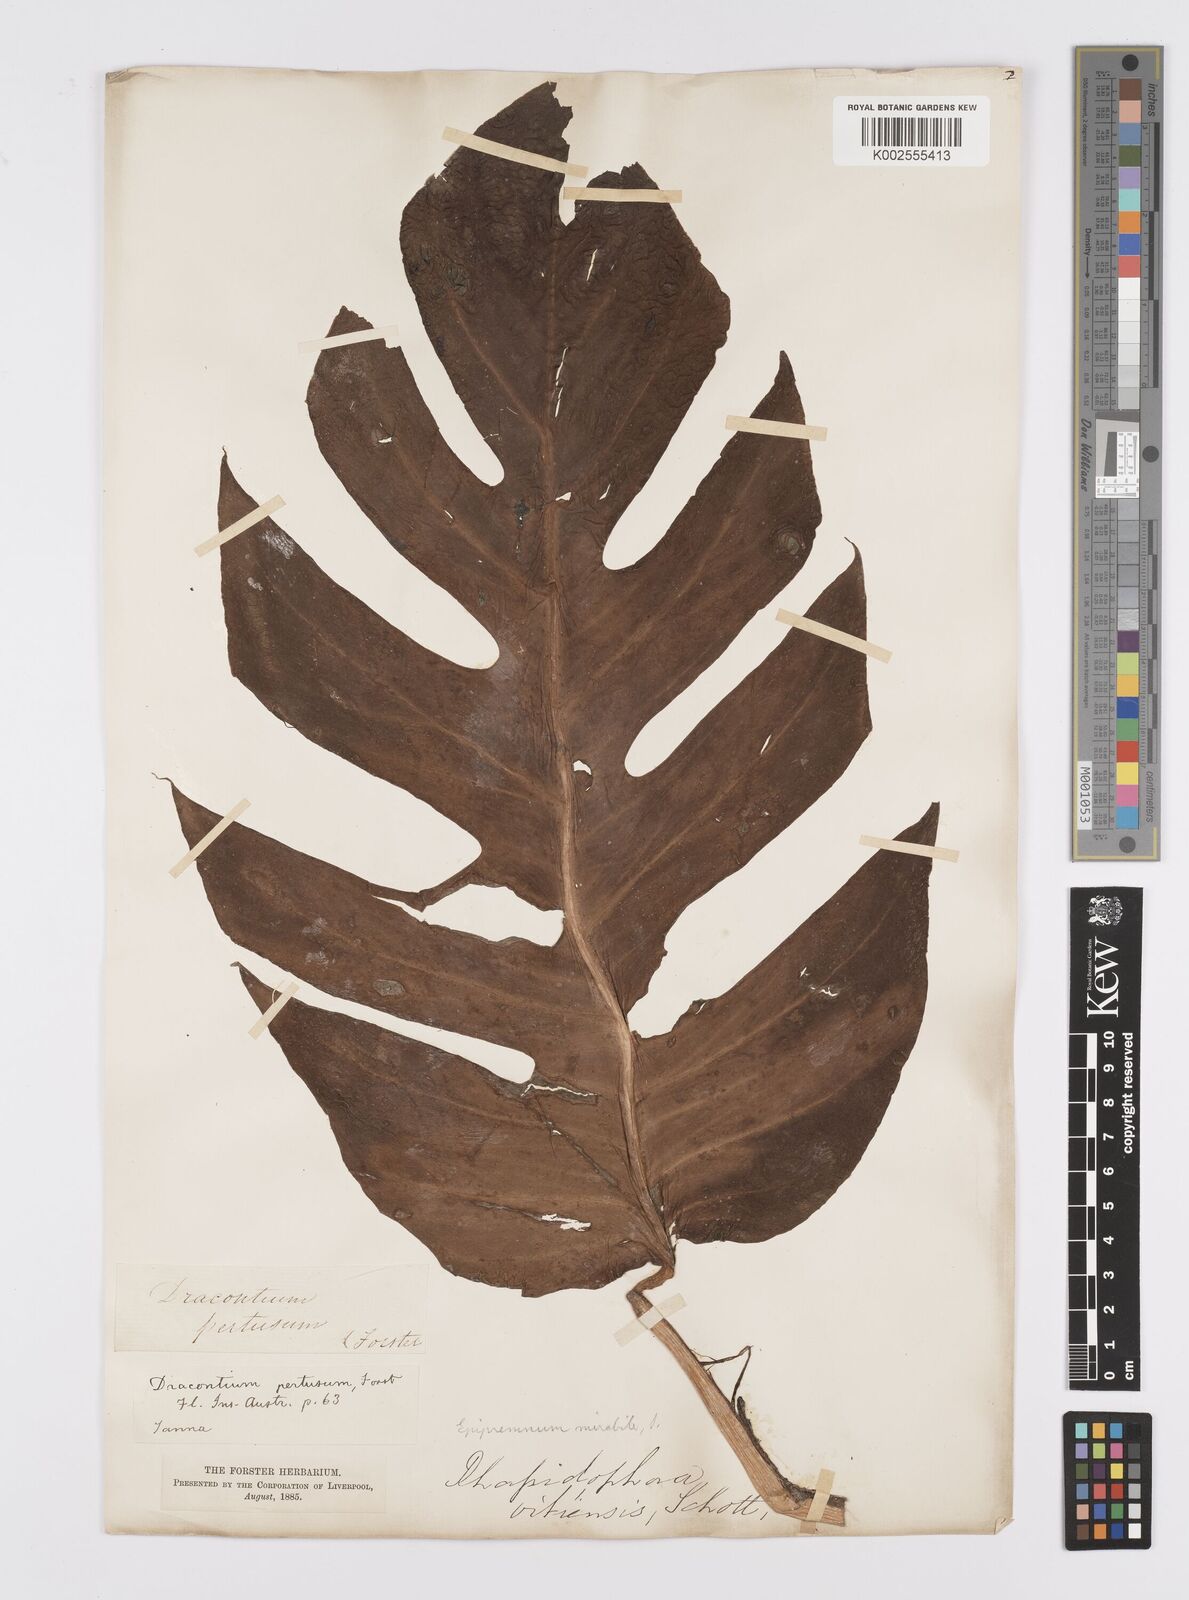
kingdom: Plantae
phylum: Tracheophyta
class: Liliopsida
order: Alismatales
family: Araceae
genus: Epipremnum
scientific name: Epipremnum pinnatum
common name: Centipede tongavine
